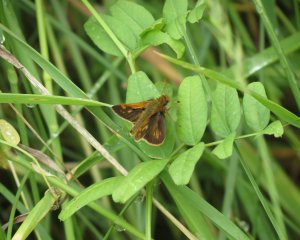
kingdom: Animalia
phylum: Arthropoda
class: Insecta
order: Lepidoptera
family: Hesperiidae
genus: Polites
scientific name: Polites coras
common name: Peck's Skipper
